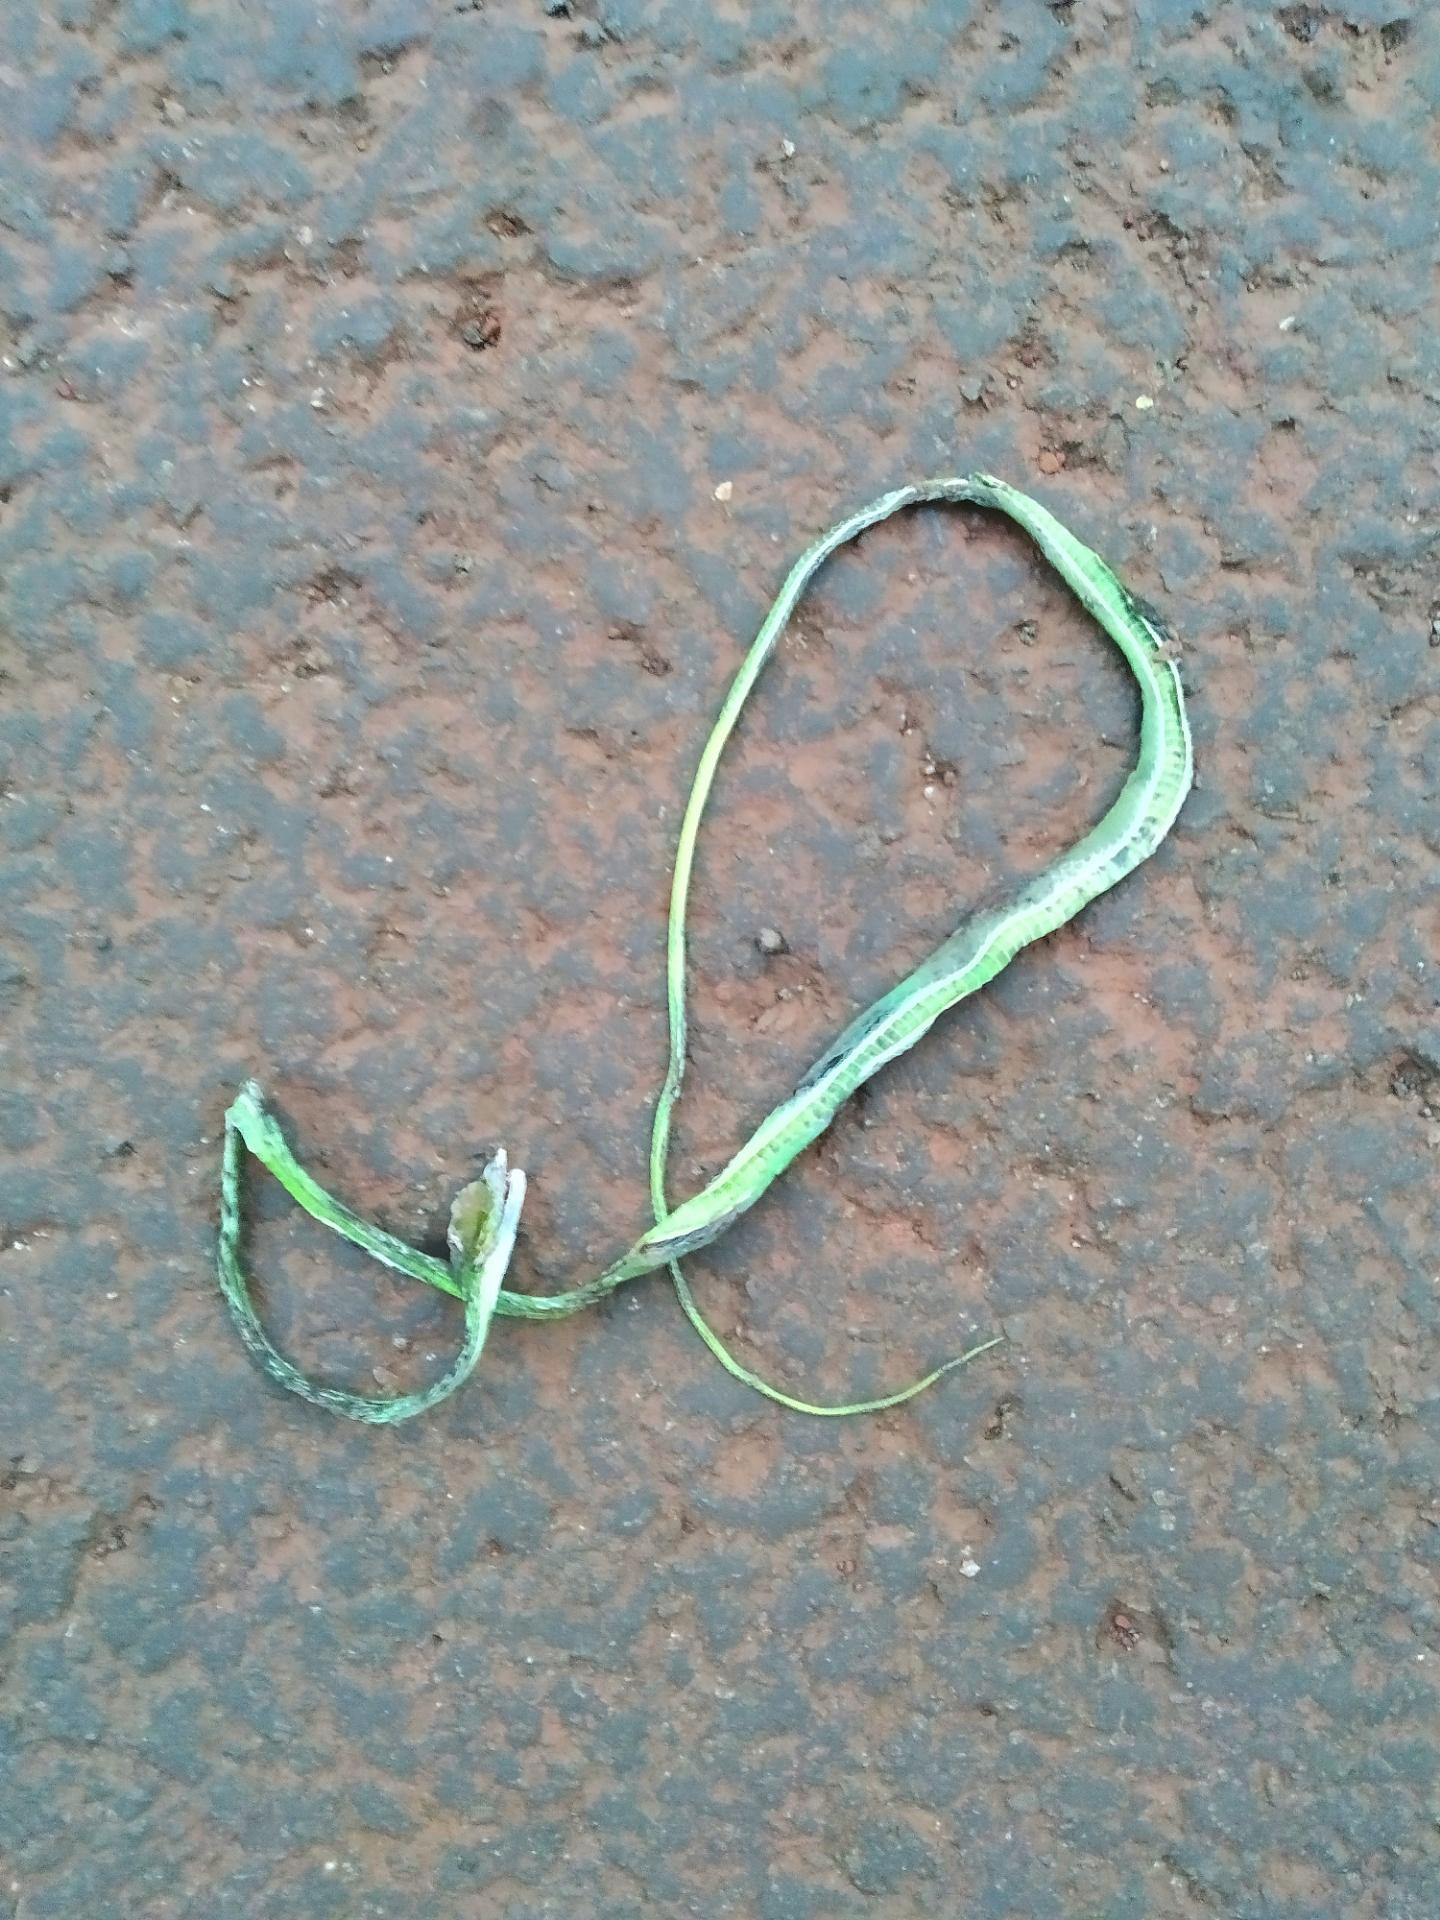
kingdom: Animalia
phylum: Chordata
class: Squamata
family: Colubridae
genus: Ahaetulla
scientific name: Ahaetulla nasuta
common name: Green vine snake
